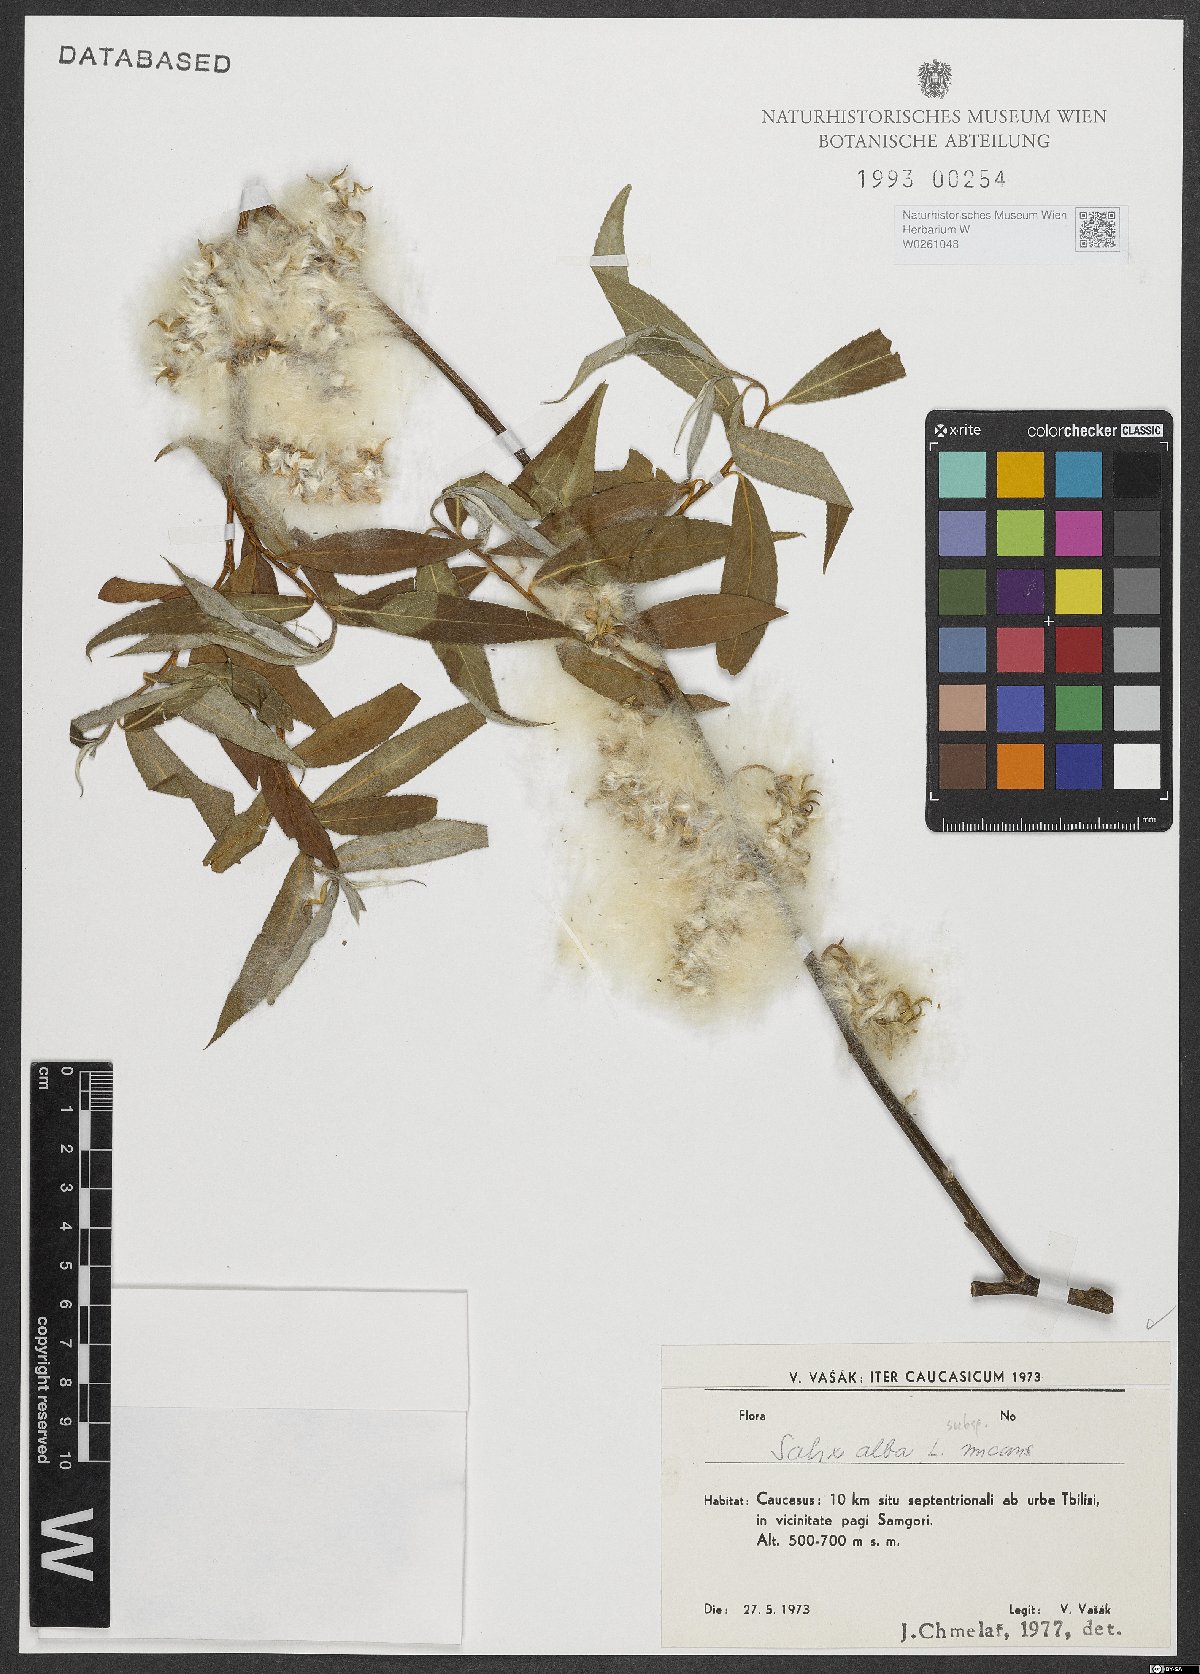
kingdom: Plantae
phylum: Tracheophyta
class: Magnoliopsida
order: Malpighiales
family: Salicaceae
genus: Salix
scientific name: Salix alba
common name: White willow
